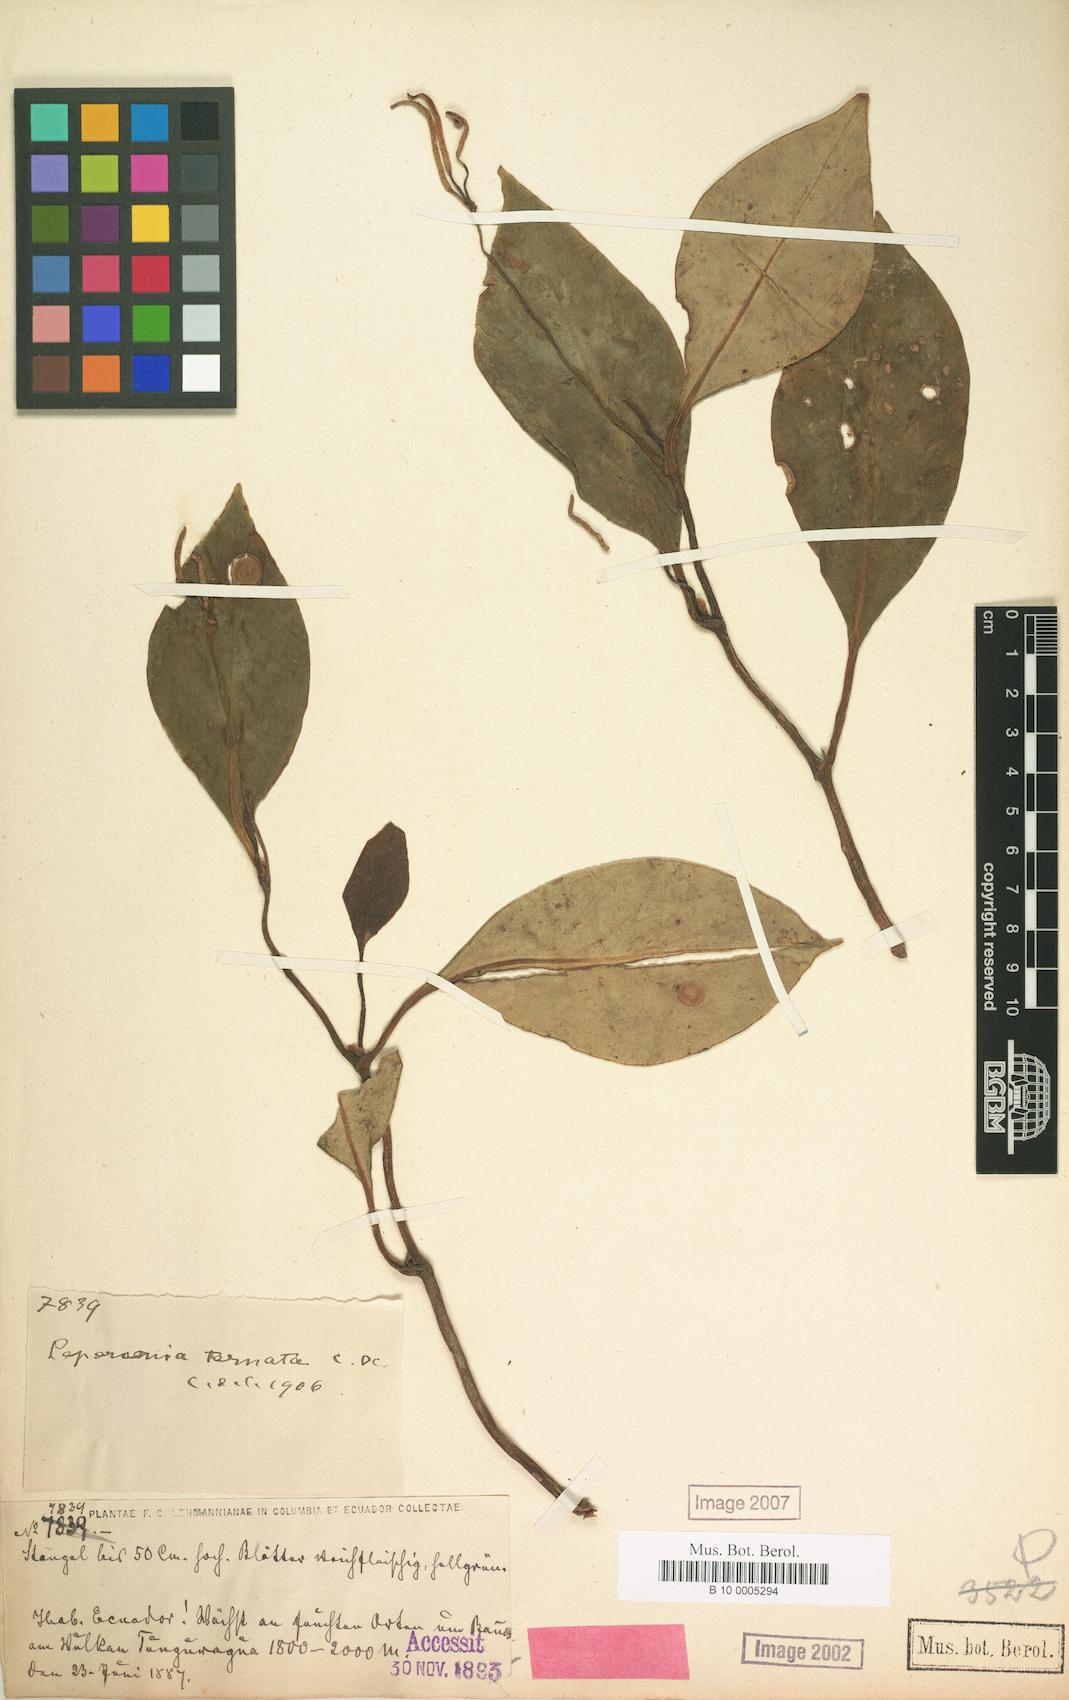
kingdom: Plantae
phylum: Tracheophyta
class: Magnoliopsida
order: Piperales
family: Piperaceae
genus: Peperomia
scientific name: Peperomia ternata
